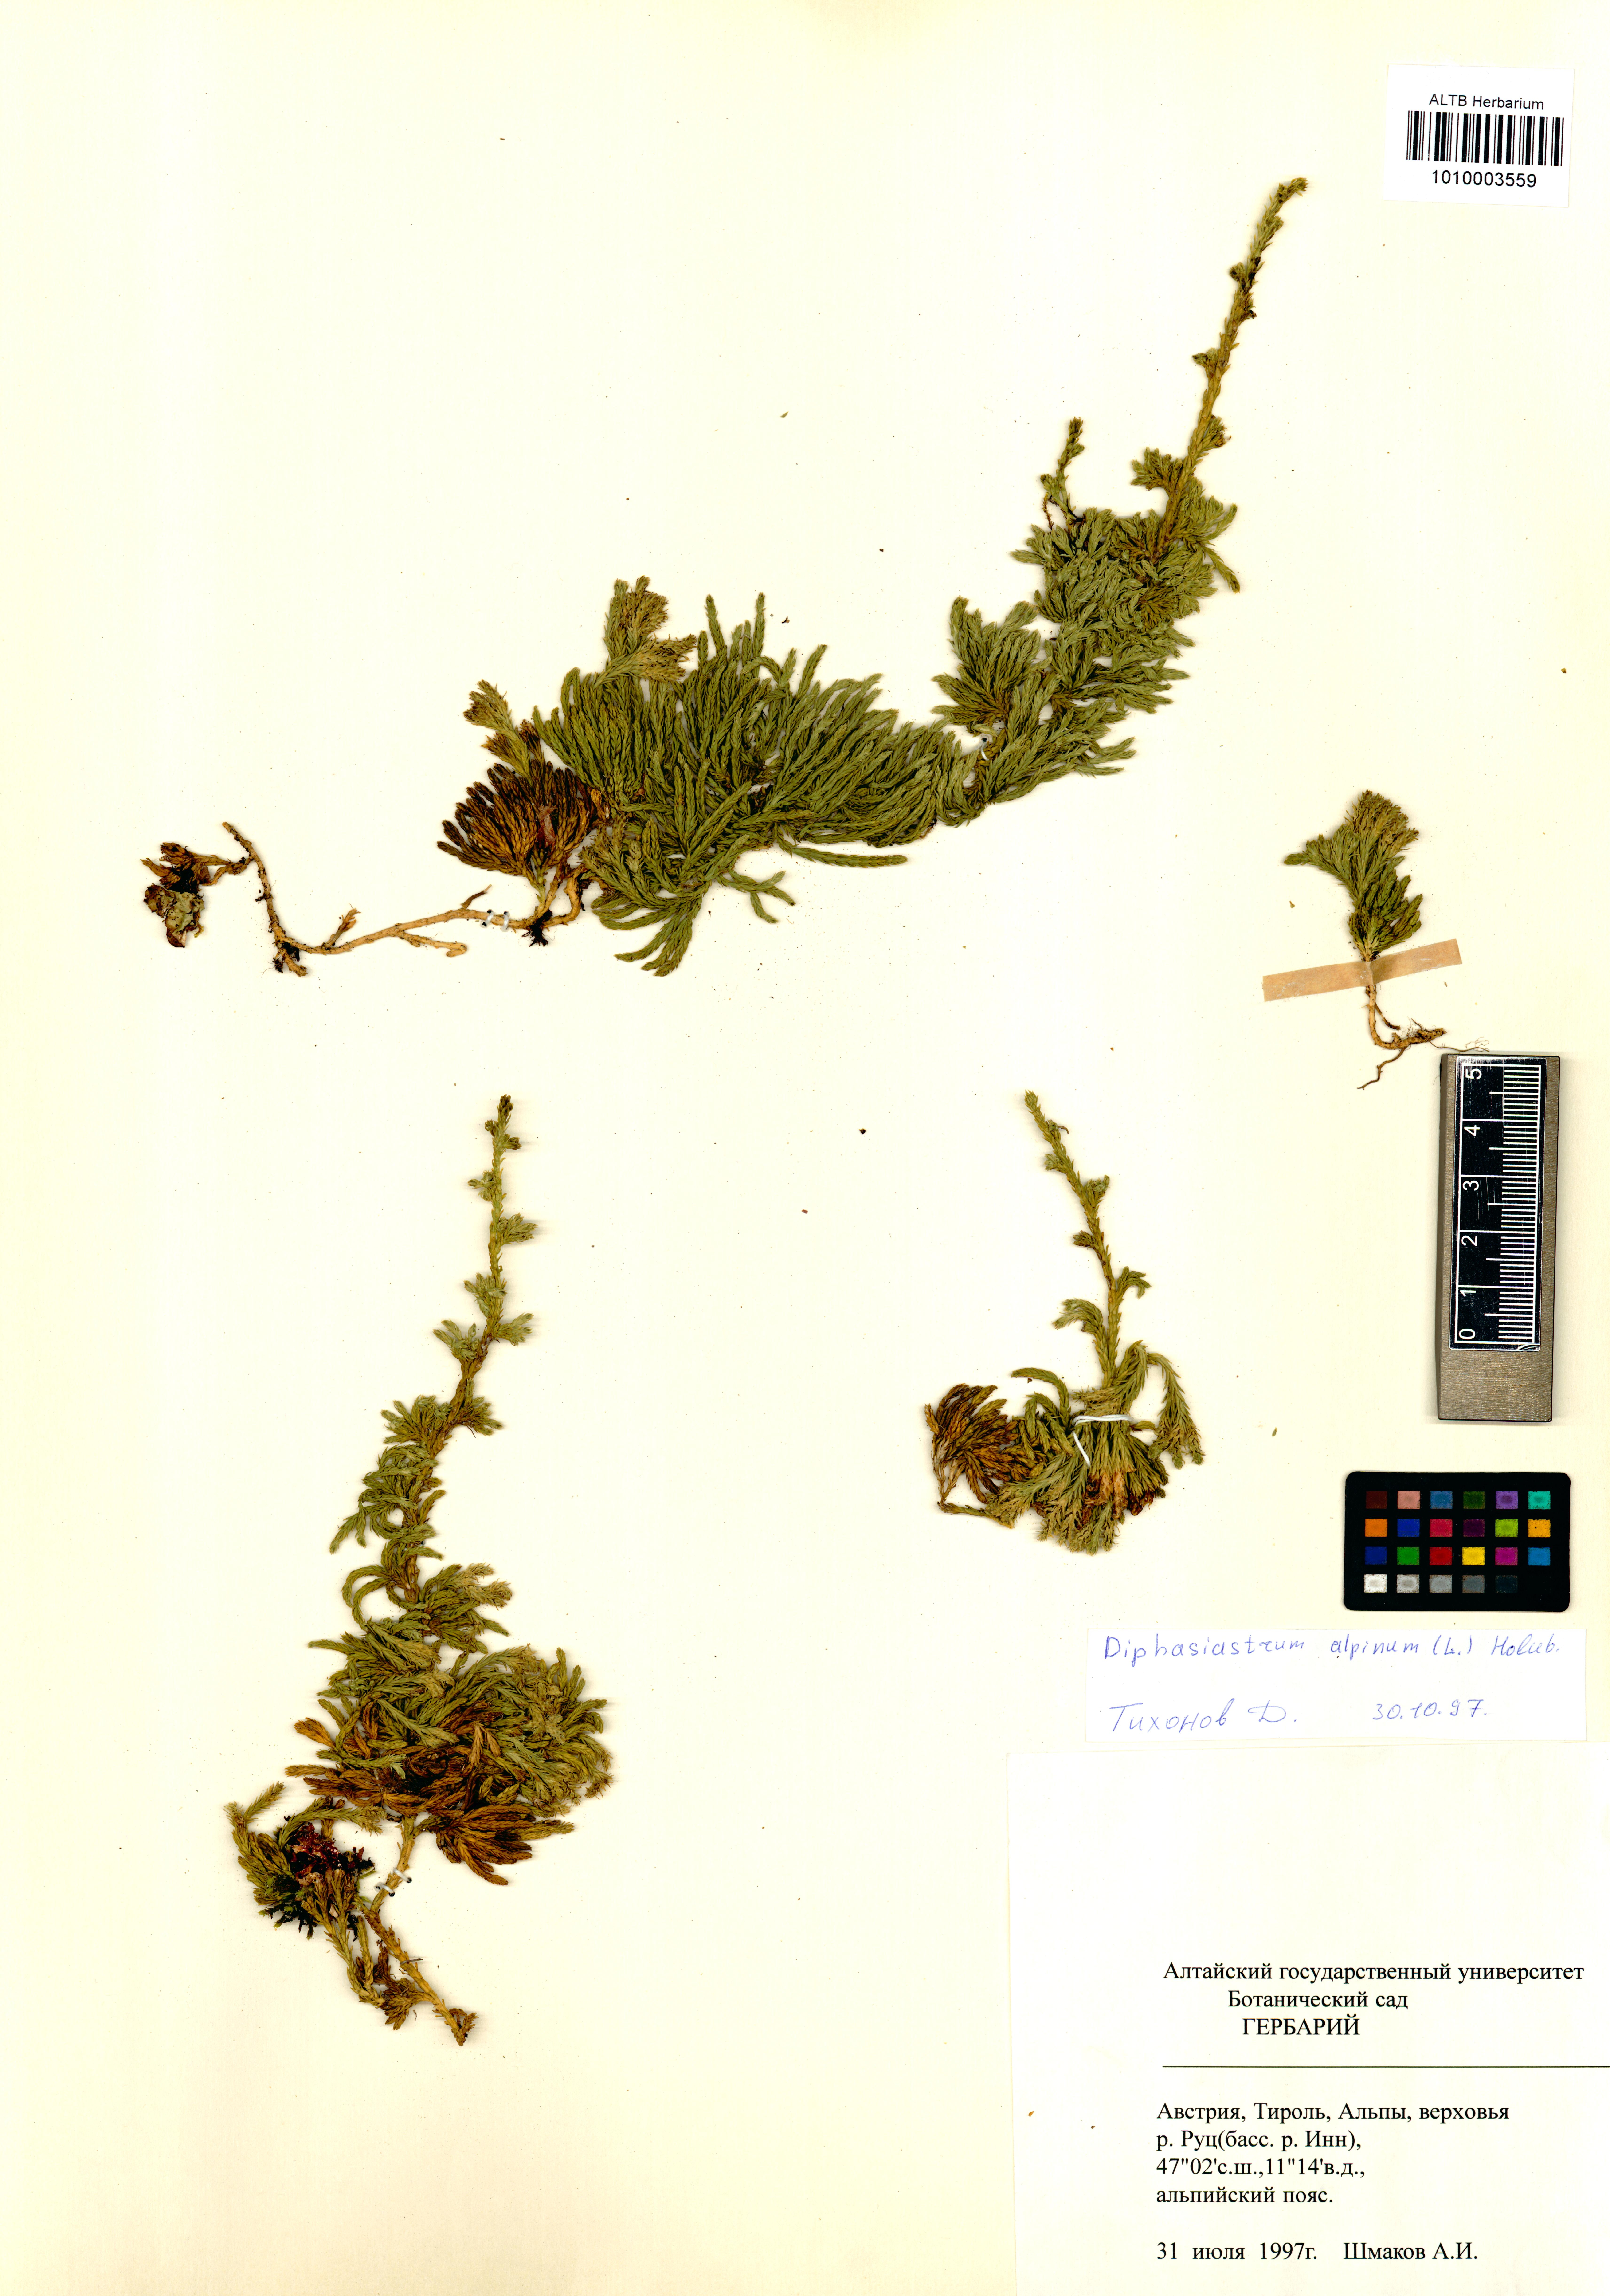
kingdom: Plantae
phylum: Tracheophyta
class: Lycopodiopsida
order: Lycopodiales
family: Lycopodiaceae
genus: Diphasiastrum
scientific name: Diphasiastrum alpinum
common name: Alpine clubmoss
